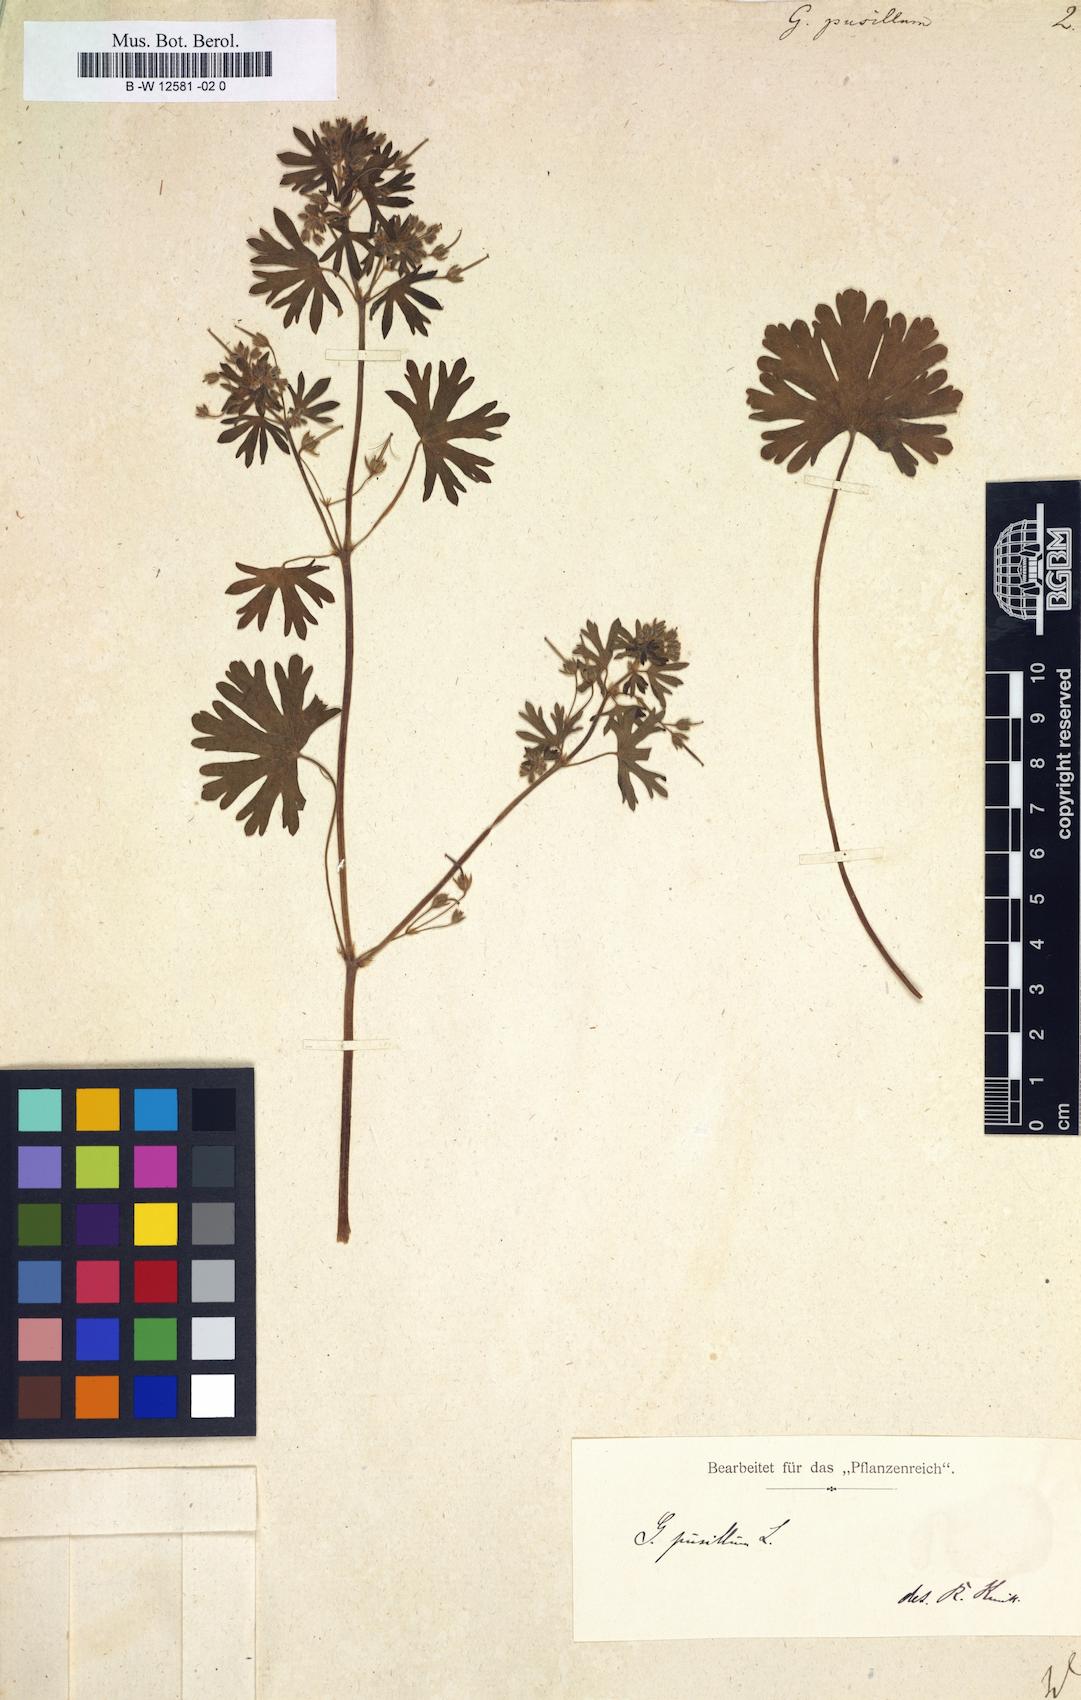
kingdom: Plantae
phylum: Tracheophyta
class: Magnoliopsida
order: Geraniales
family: Geraniaceae
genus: Geranium
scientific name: Geranium pusillum
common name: Small geranium
